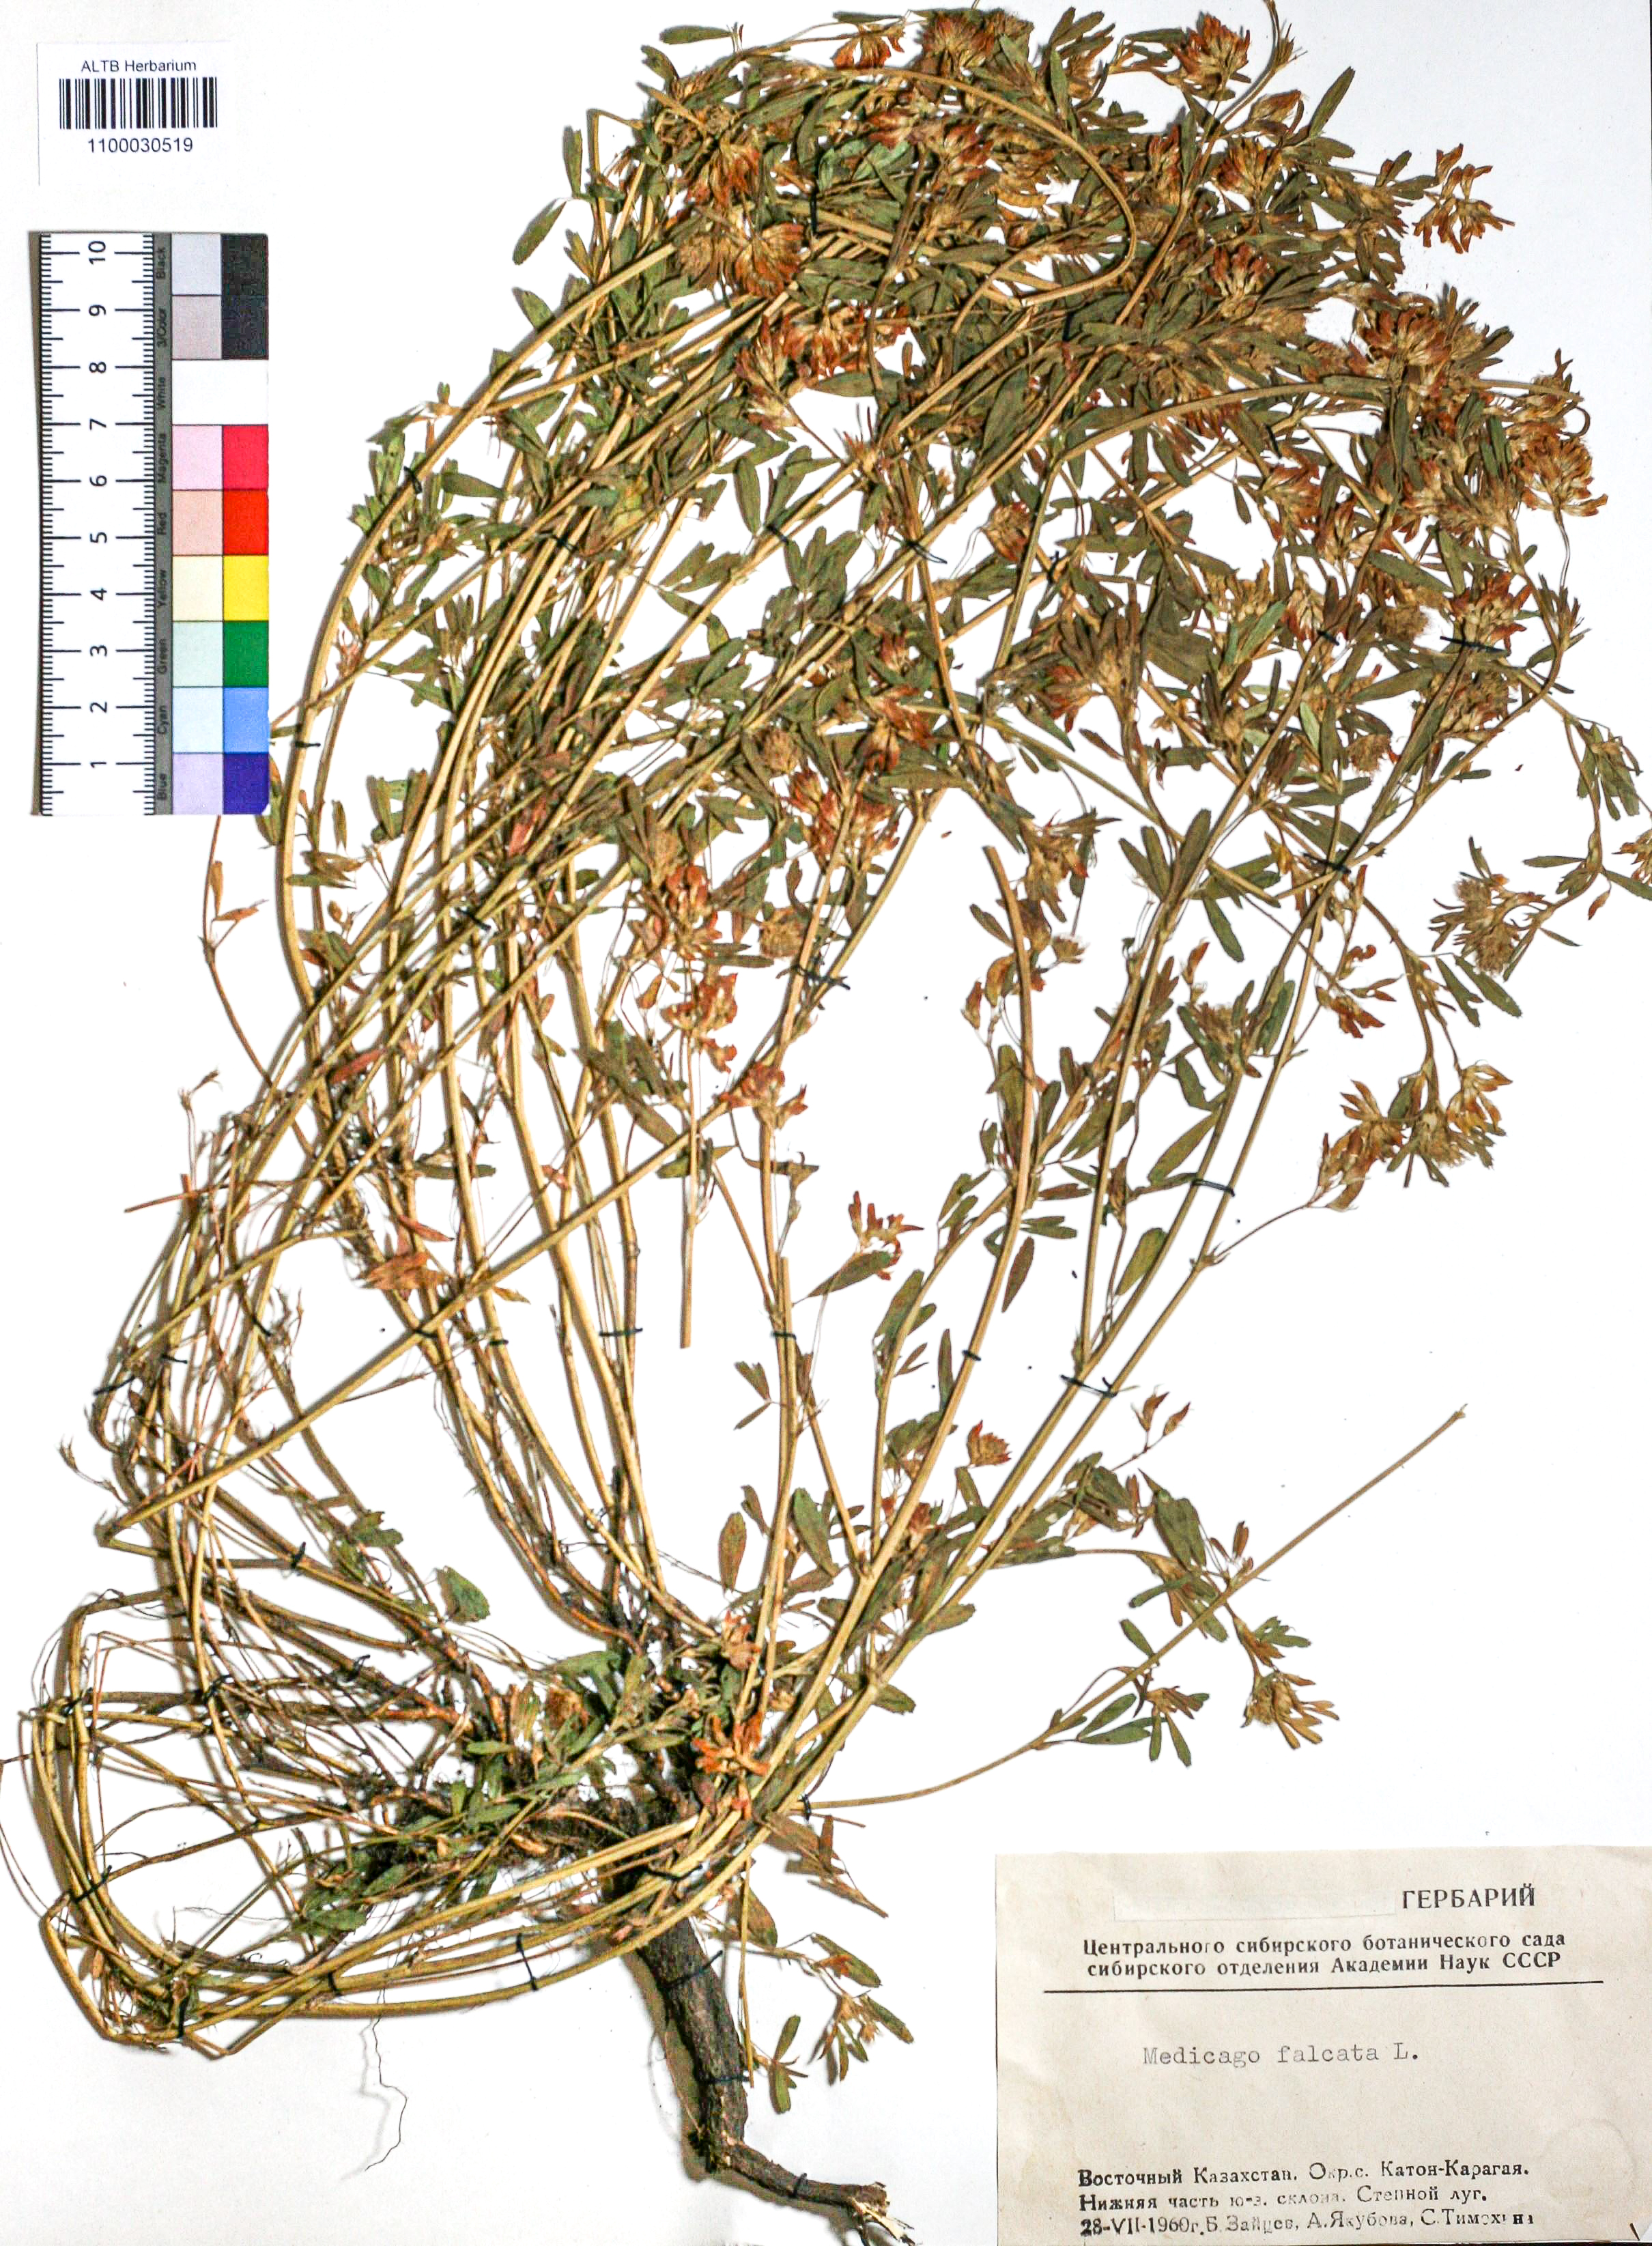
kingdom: Plantae
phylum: Tracheophyta
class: Magnoliopsida
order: Fabales
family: Fabaceae
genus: Medicago
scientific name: Medicago falcata
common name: Sickle medick
